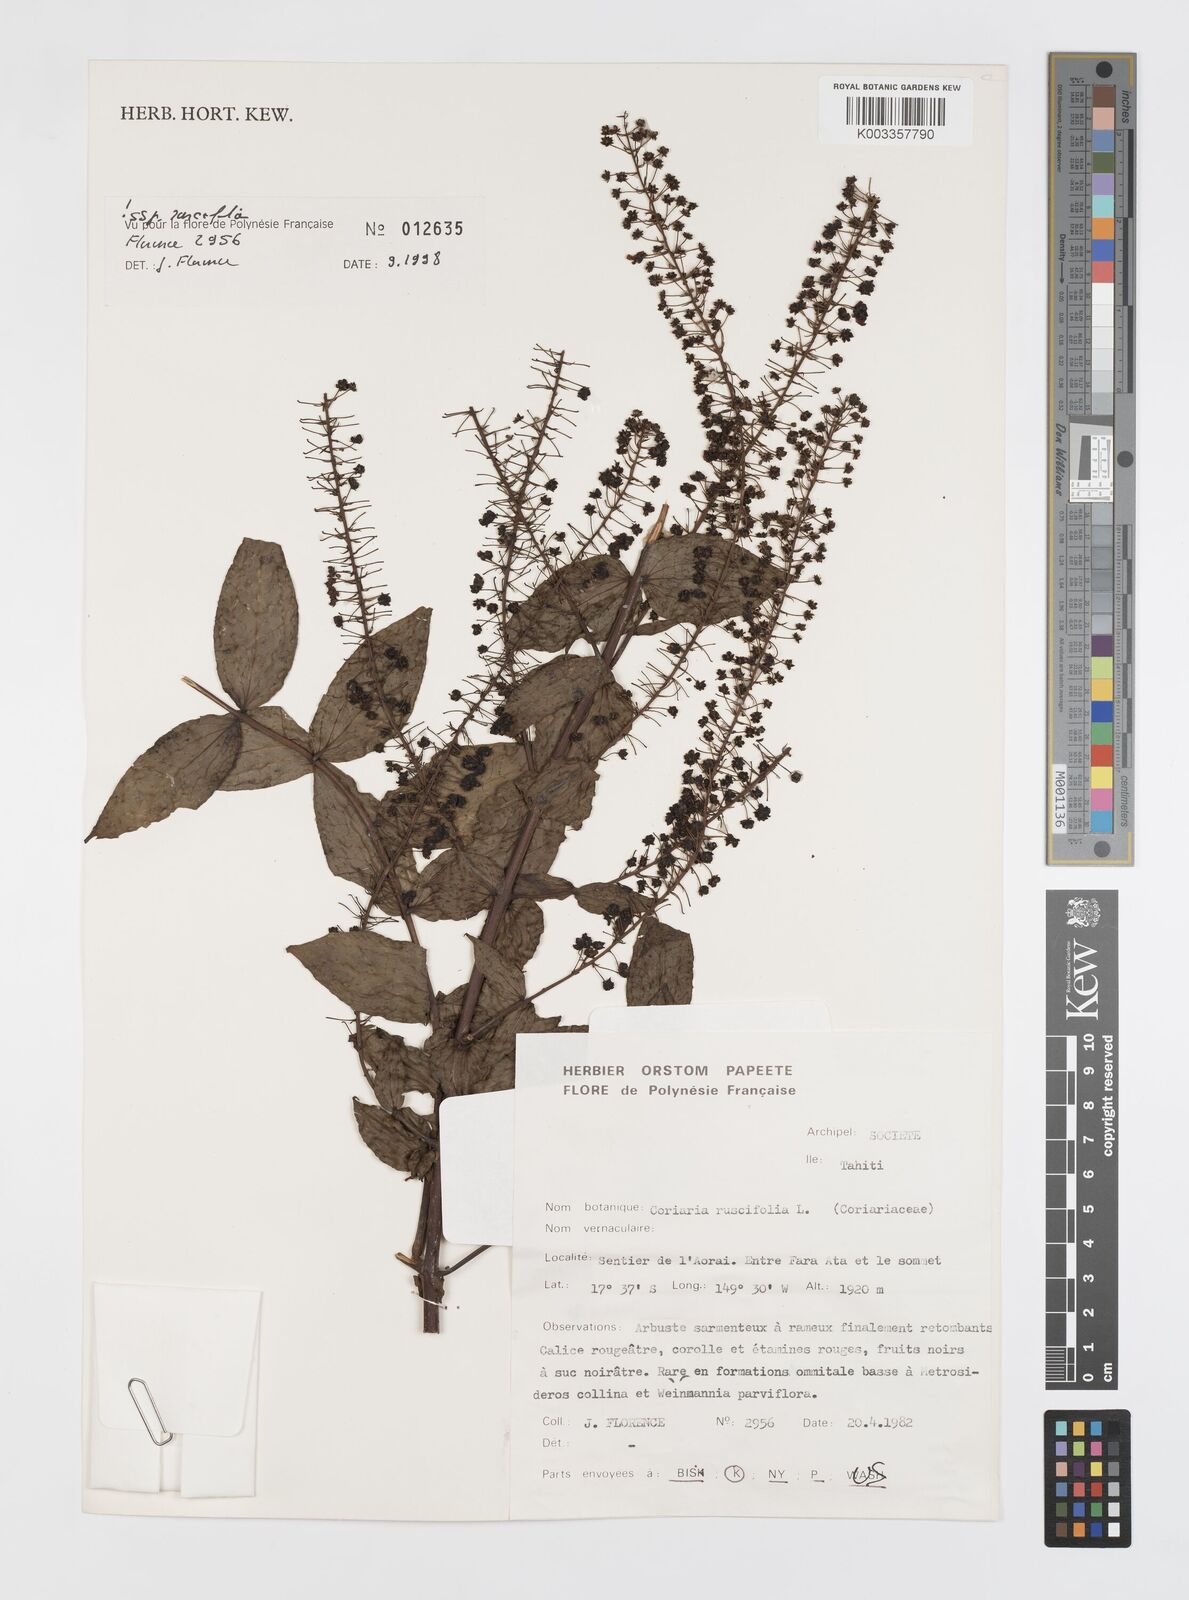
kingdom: Plantae
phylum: Tracheophyta
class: Magnoliopsida
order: Cucurbitales
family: Coriariaceae
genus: Coriaria
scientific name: Coriaria ruscifolia
